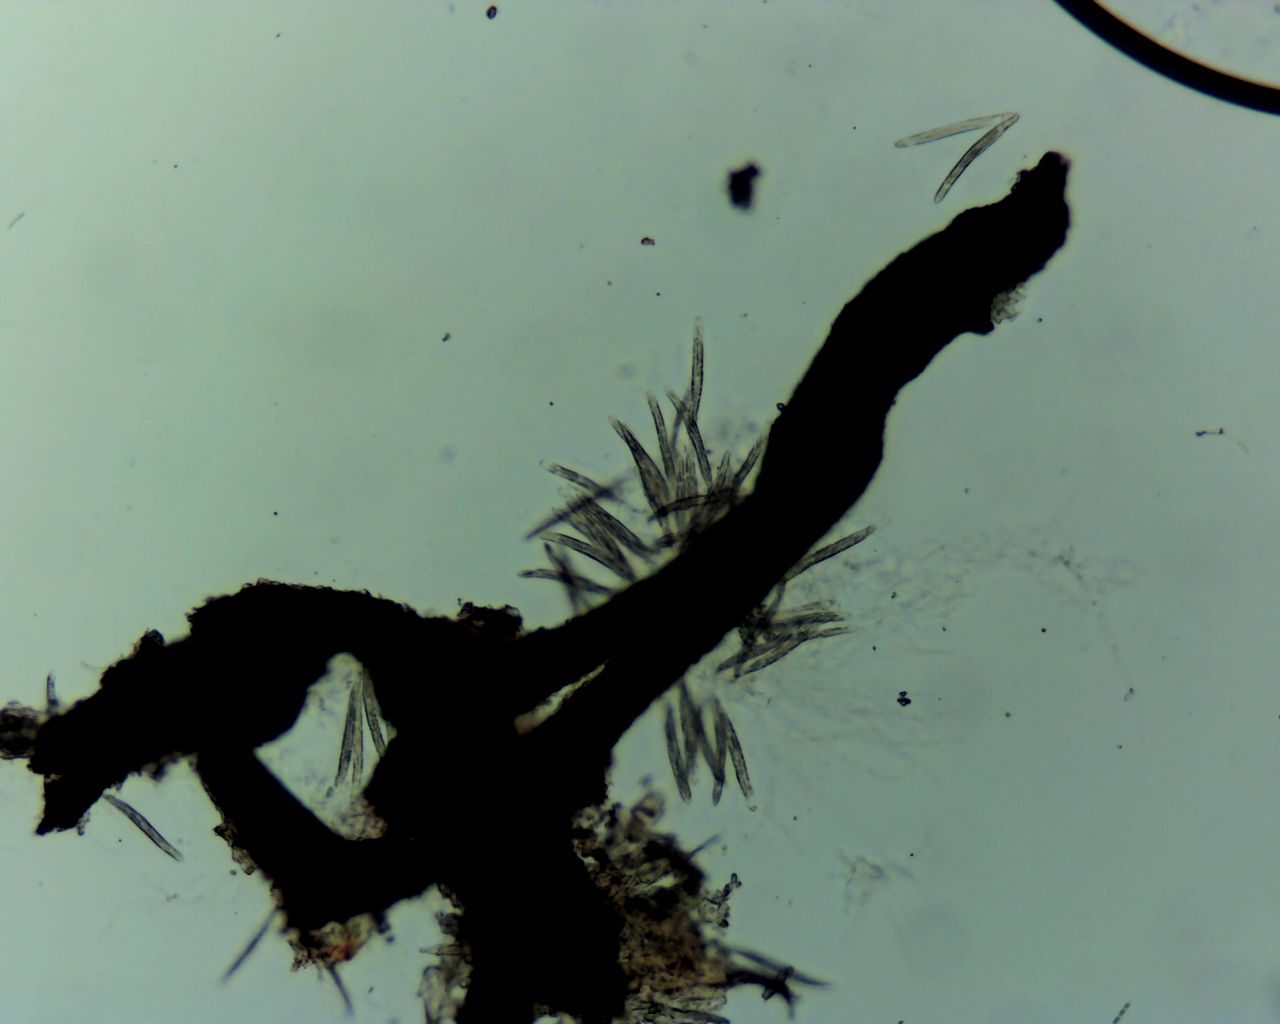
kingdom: Fungi
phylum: Ascomycota
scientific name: Ascomycota
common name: sæksvampe
